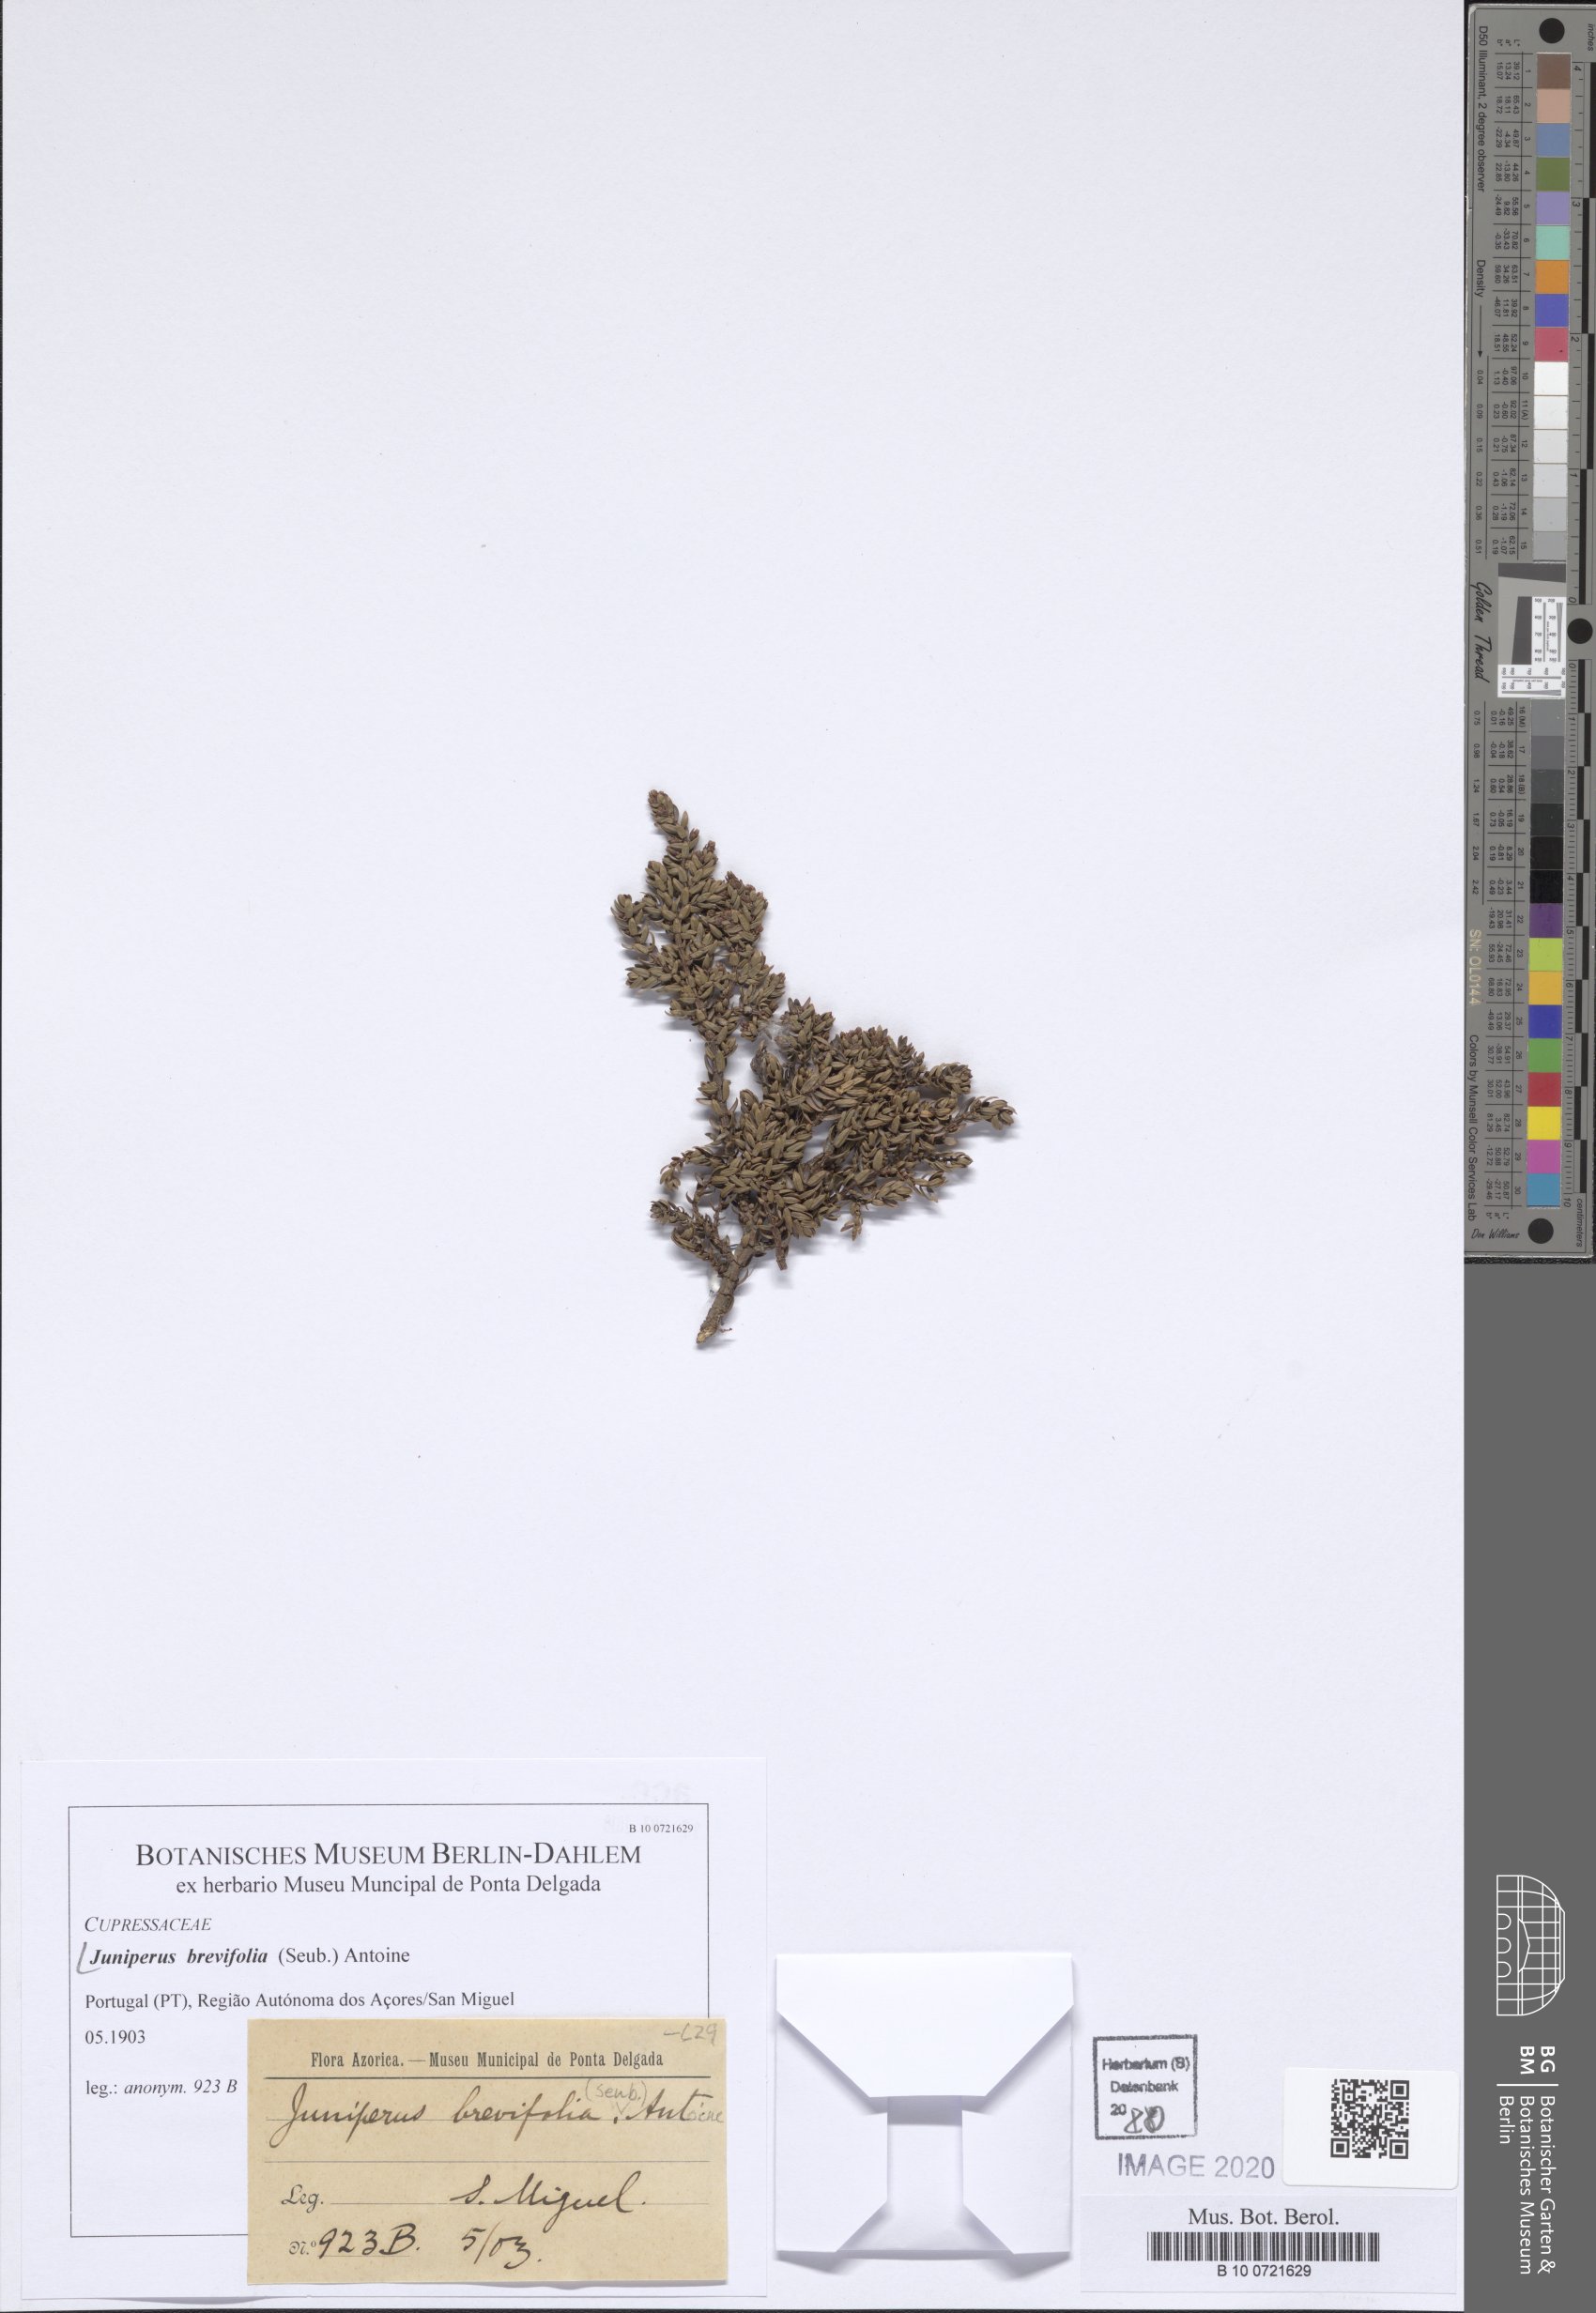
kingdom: Plantae
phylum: Tracheophyta
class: Pinopsida
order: Pinales
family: Cupressaceae
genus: Juniperus
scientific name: Juniperus brevifolia
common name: Azores juniper
